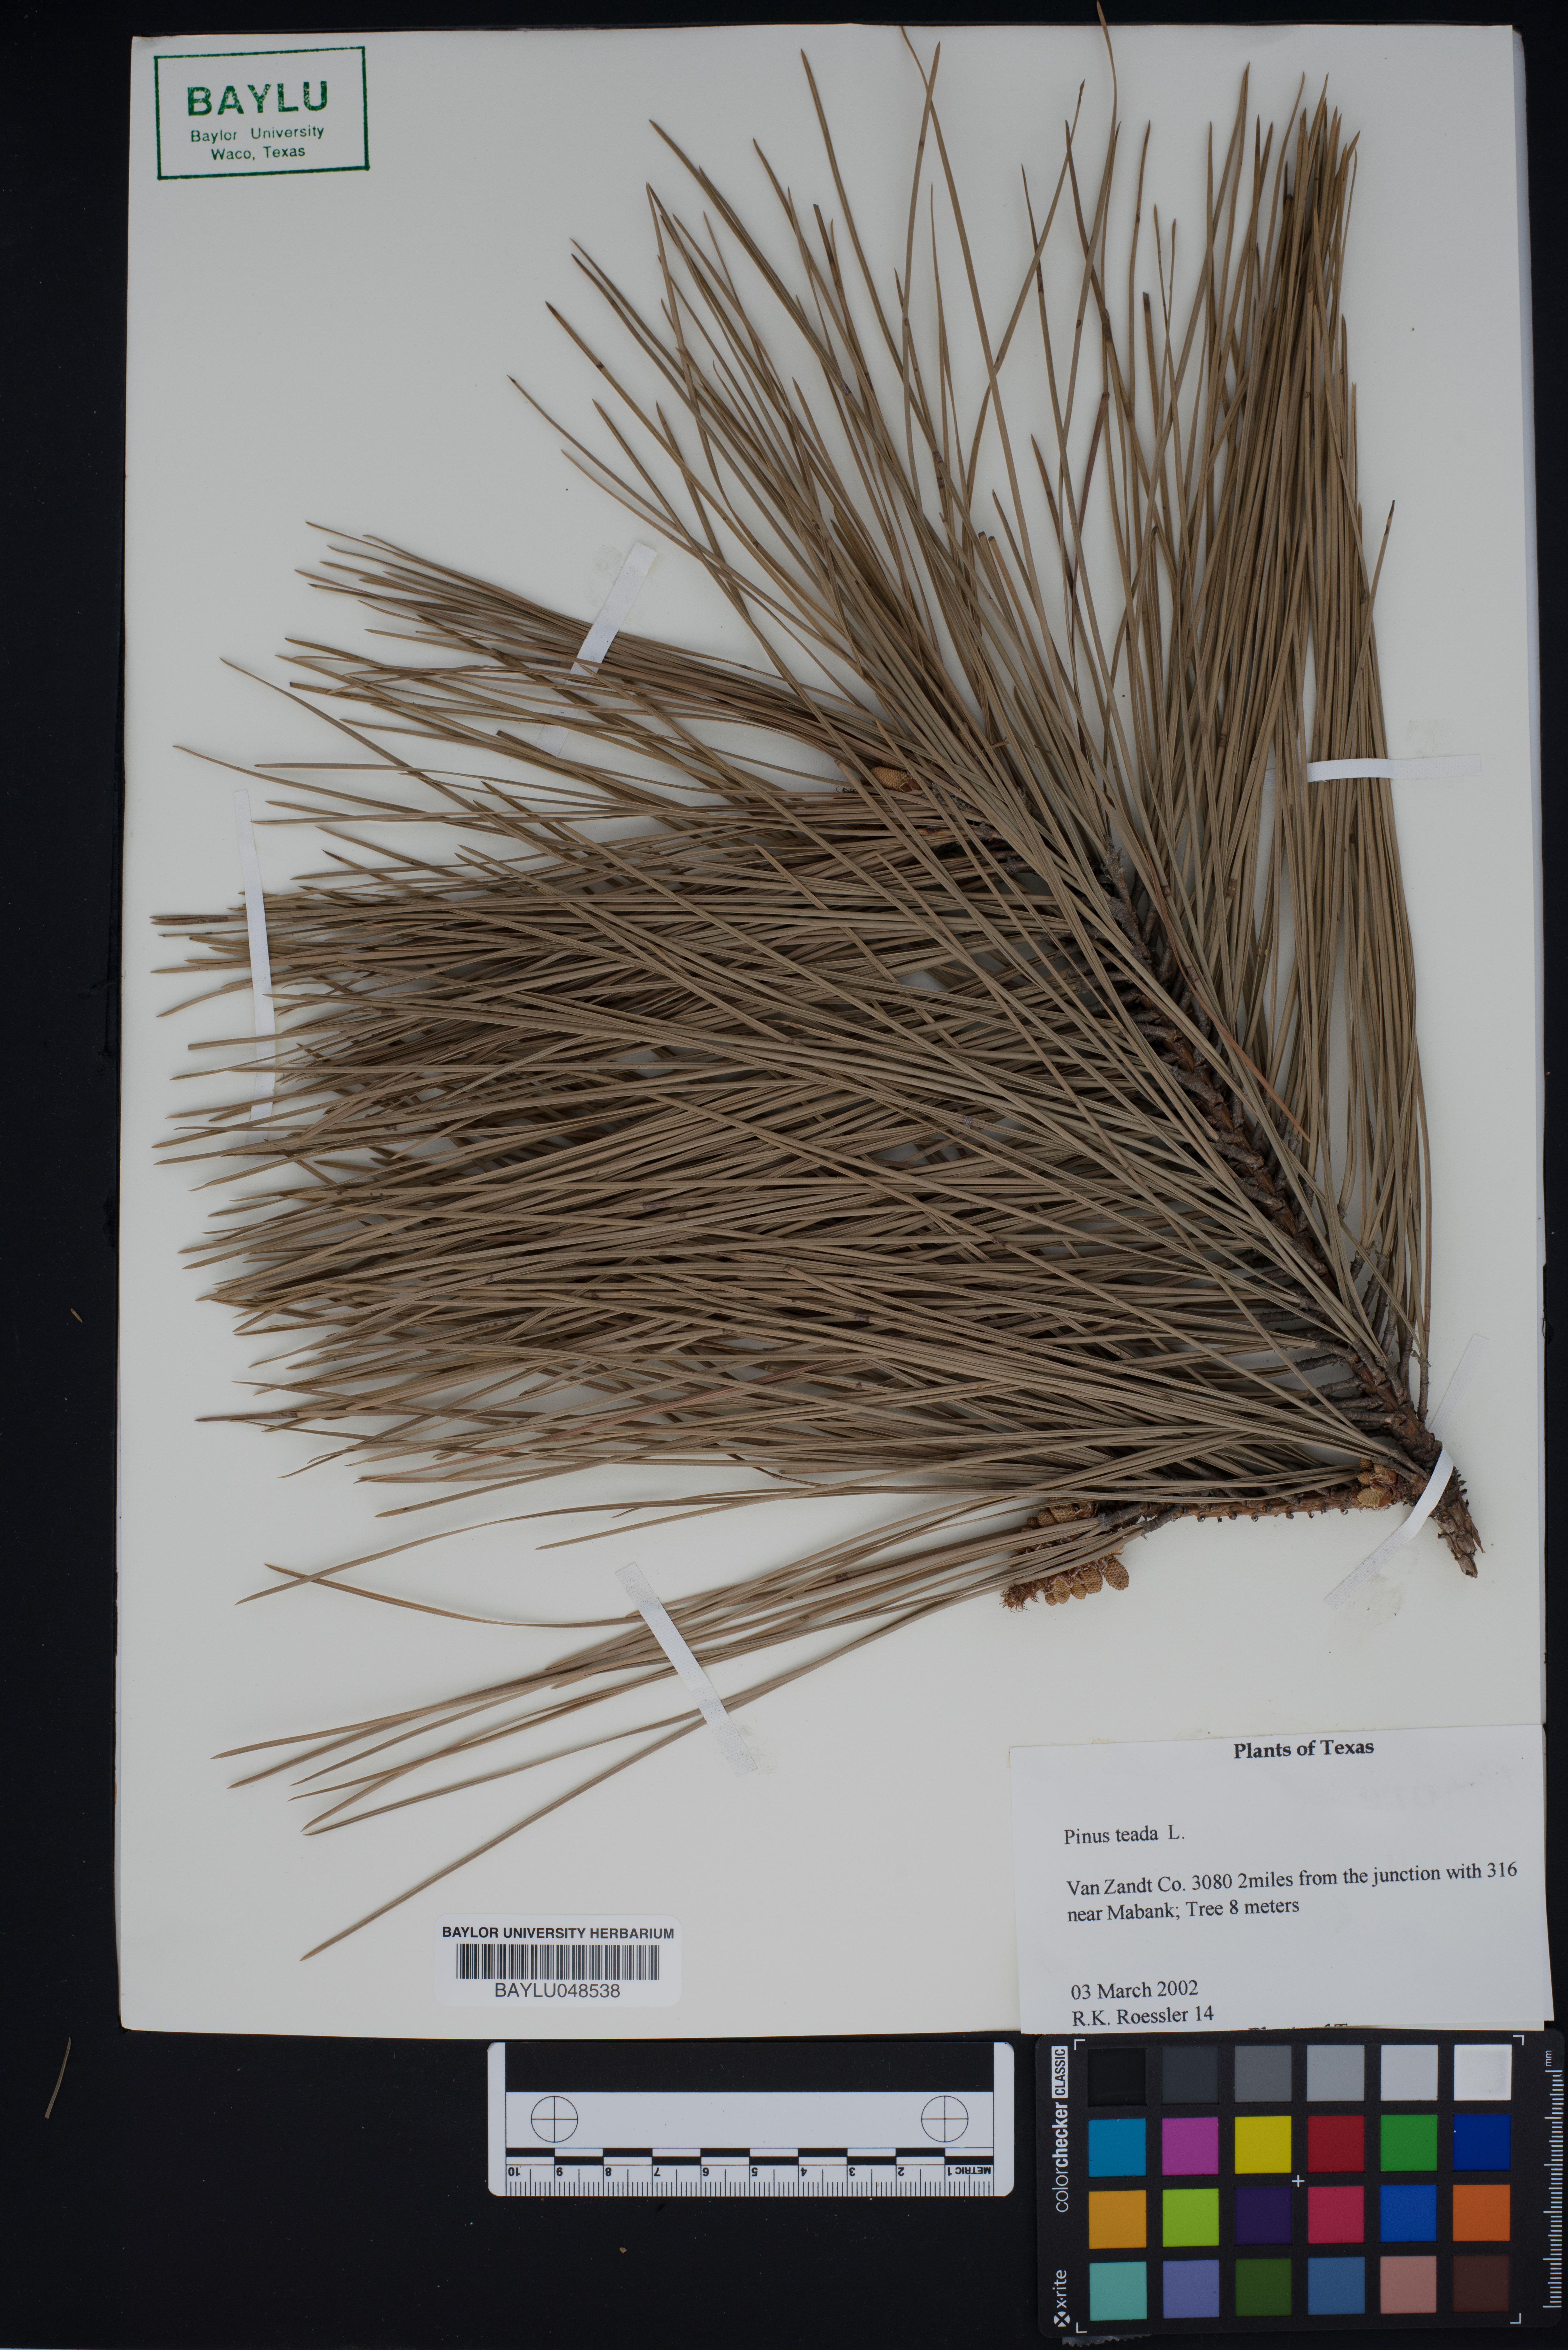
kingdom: Plantae
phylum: Tracheophyta
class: Pinopsida
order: Pinales
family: Pinaceae
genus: Pinus
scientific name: Pinus taeda
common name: Loblolly pine
